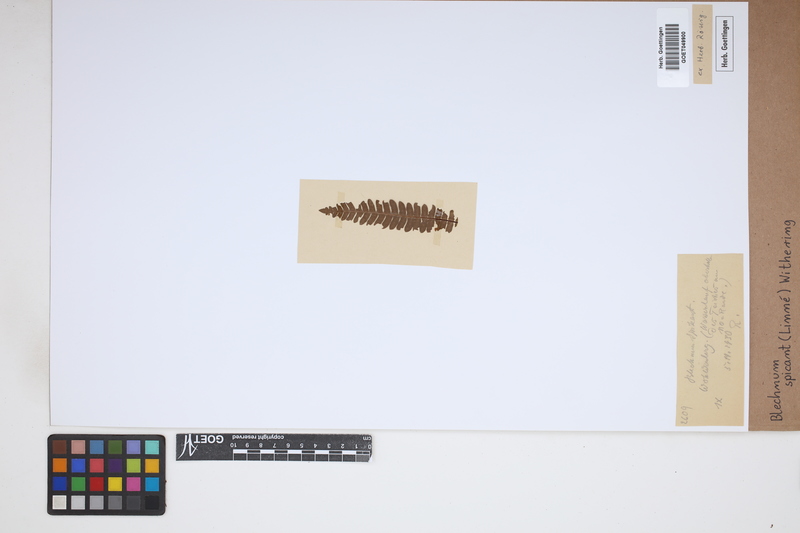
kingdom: Plantae
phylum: Tracheophyta
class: Polypodiopsida
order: Polypodiales
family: Blechnaceae
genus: Struthiopteris
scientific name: Struthiopteris spicant
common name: Deer fern
